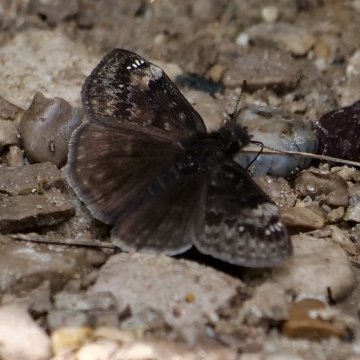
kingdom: Animalia
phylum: Arthropoda
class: Insecta
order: Lepidoptera
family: Hesperiidae
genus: Gesta
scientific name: Gesta
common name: Wild Indigo Duskywing
